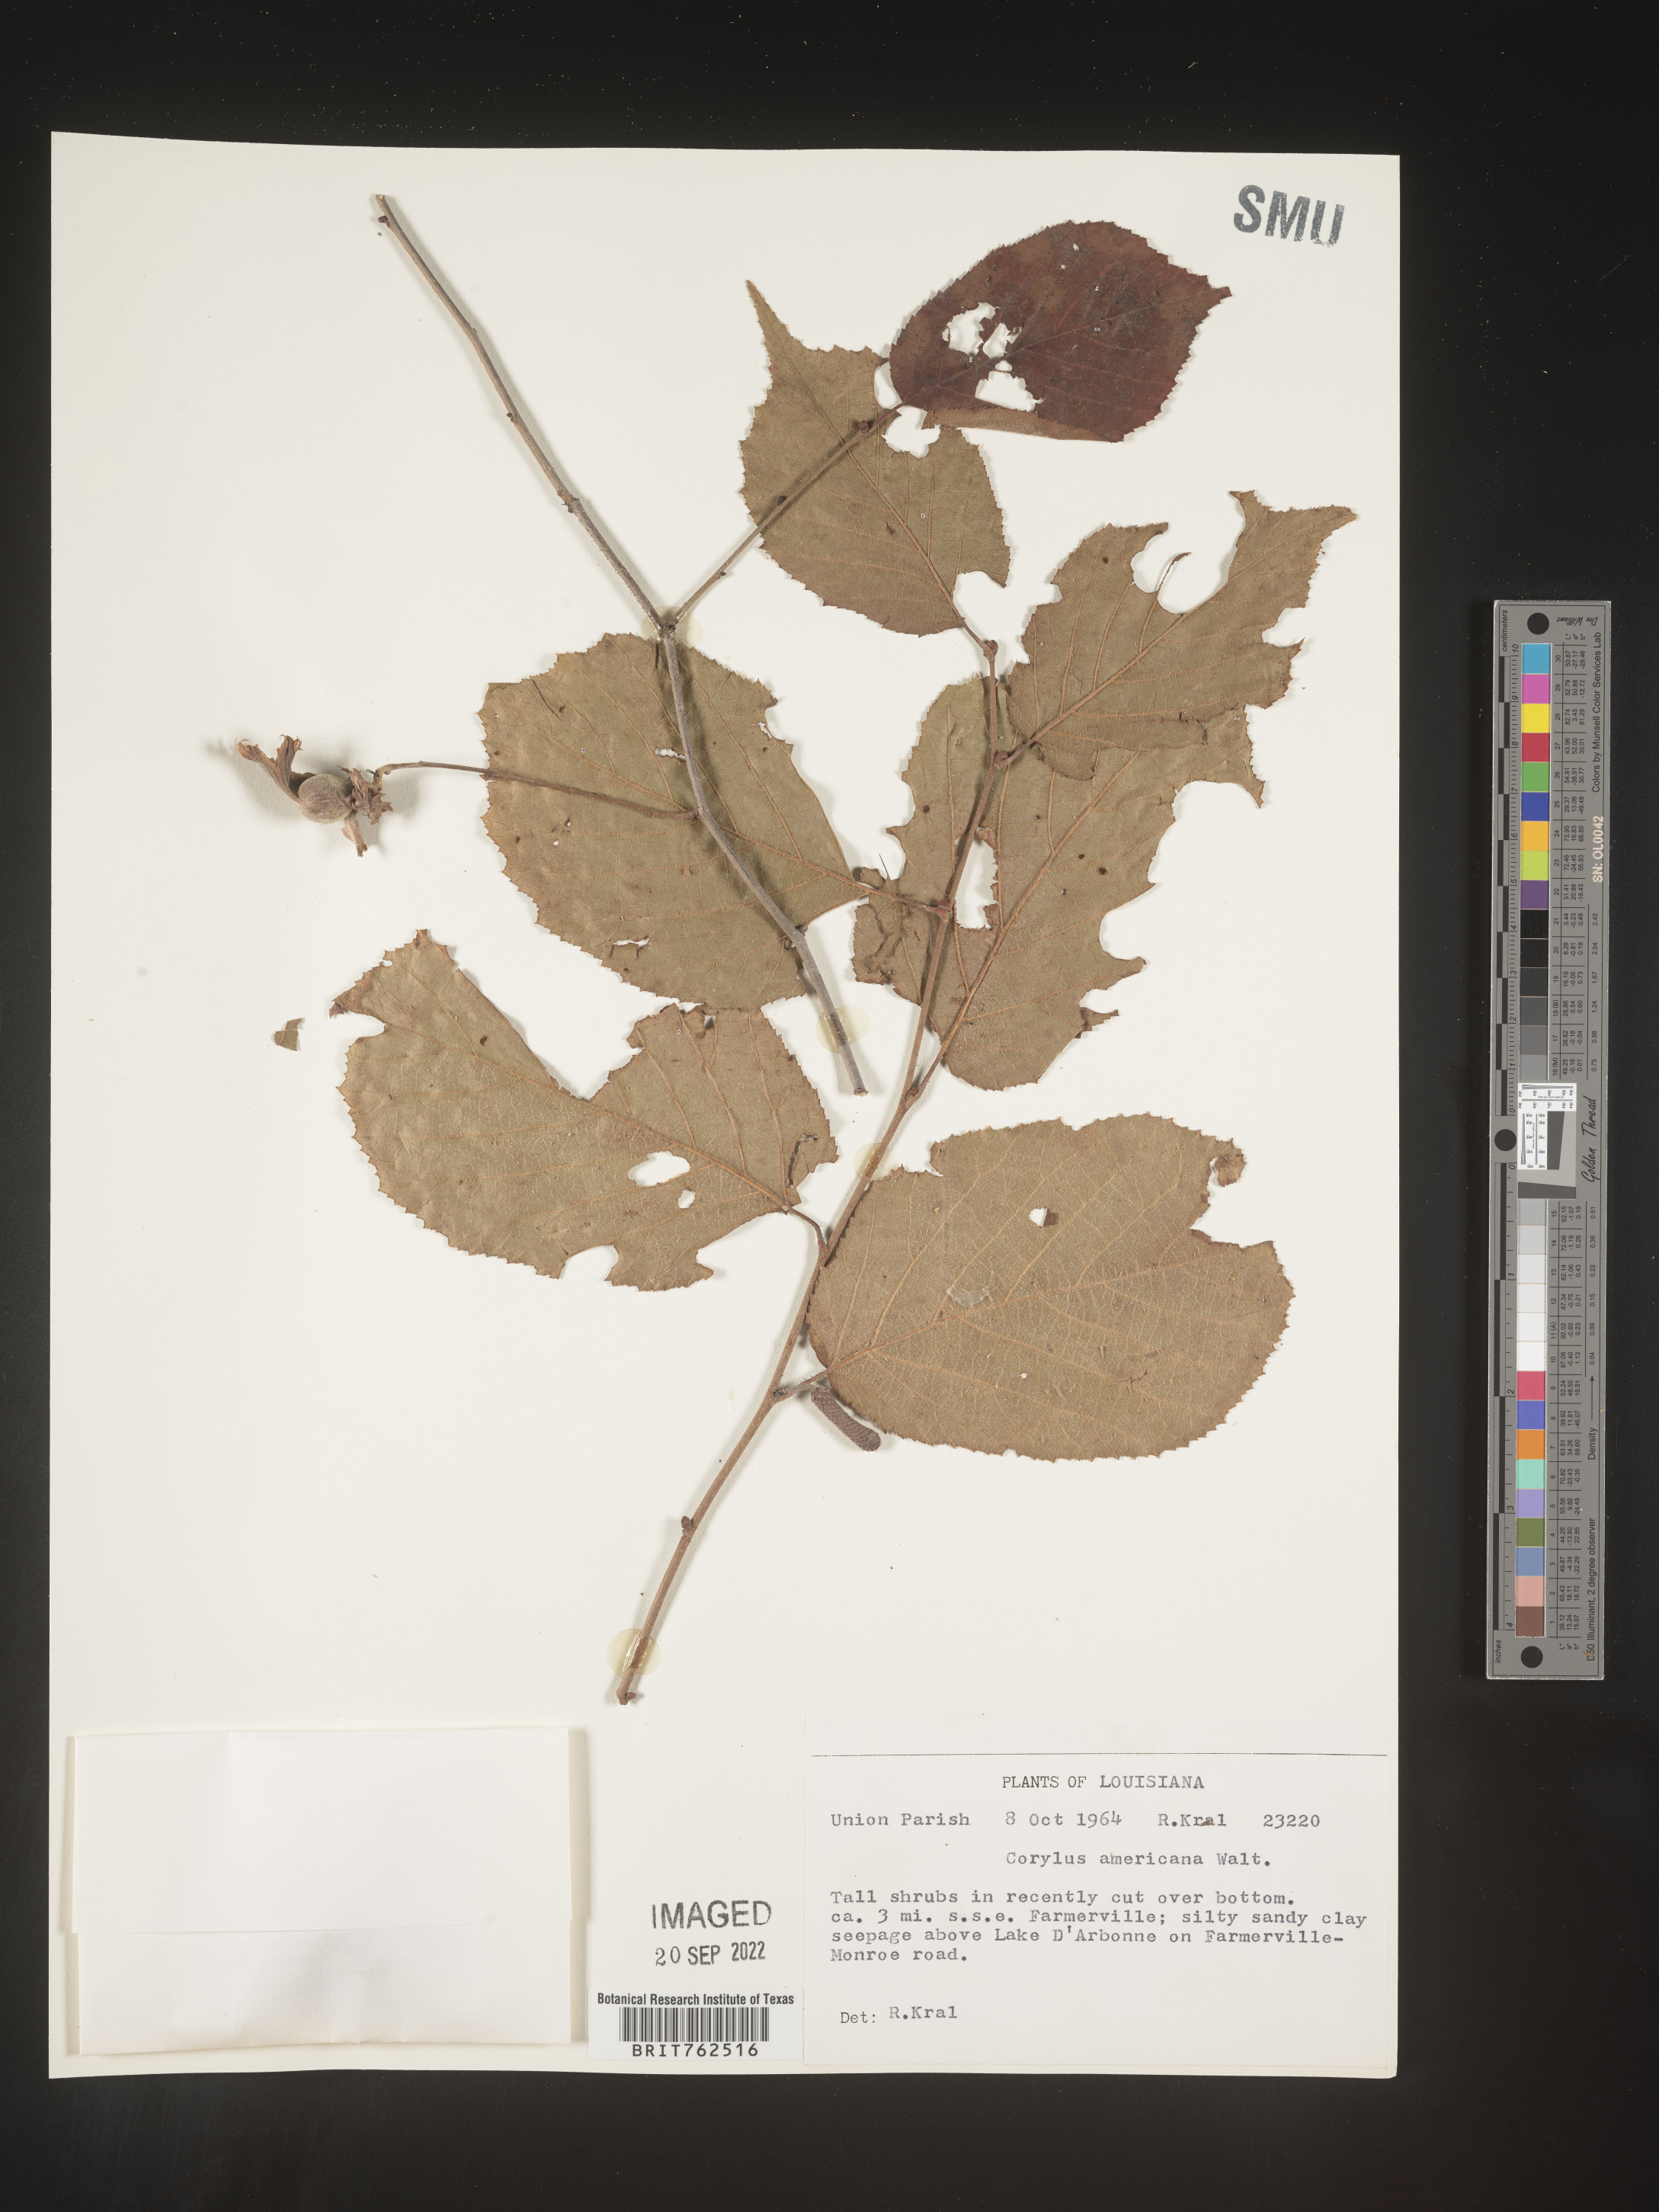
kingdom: Plantae
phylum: Tracheophyta
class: Magnoliopsida
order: Fagales
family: Betulaceae
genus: Corylus
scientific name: Corylus americana
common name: American hazel
